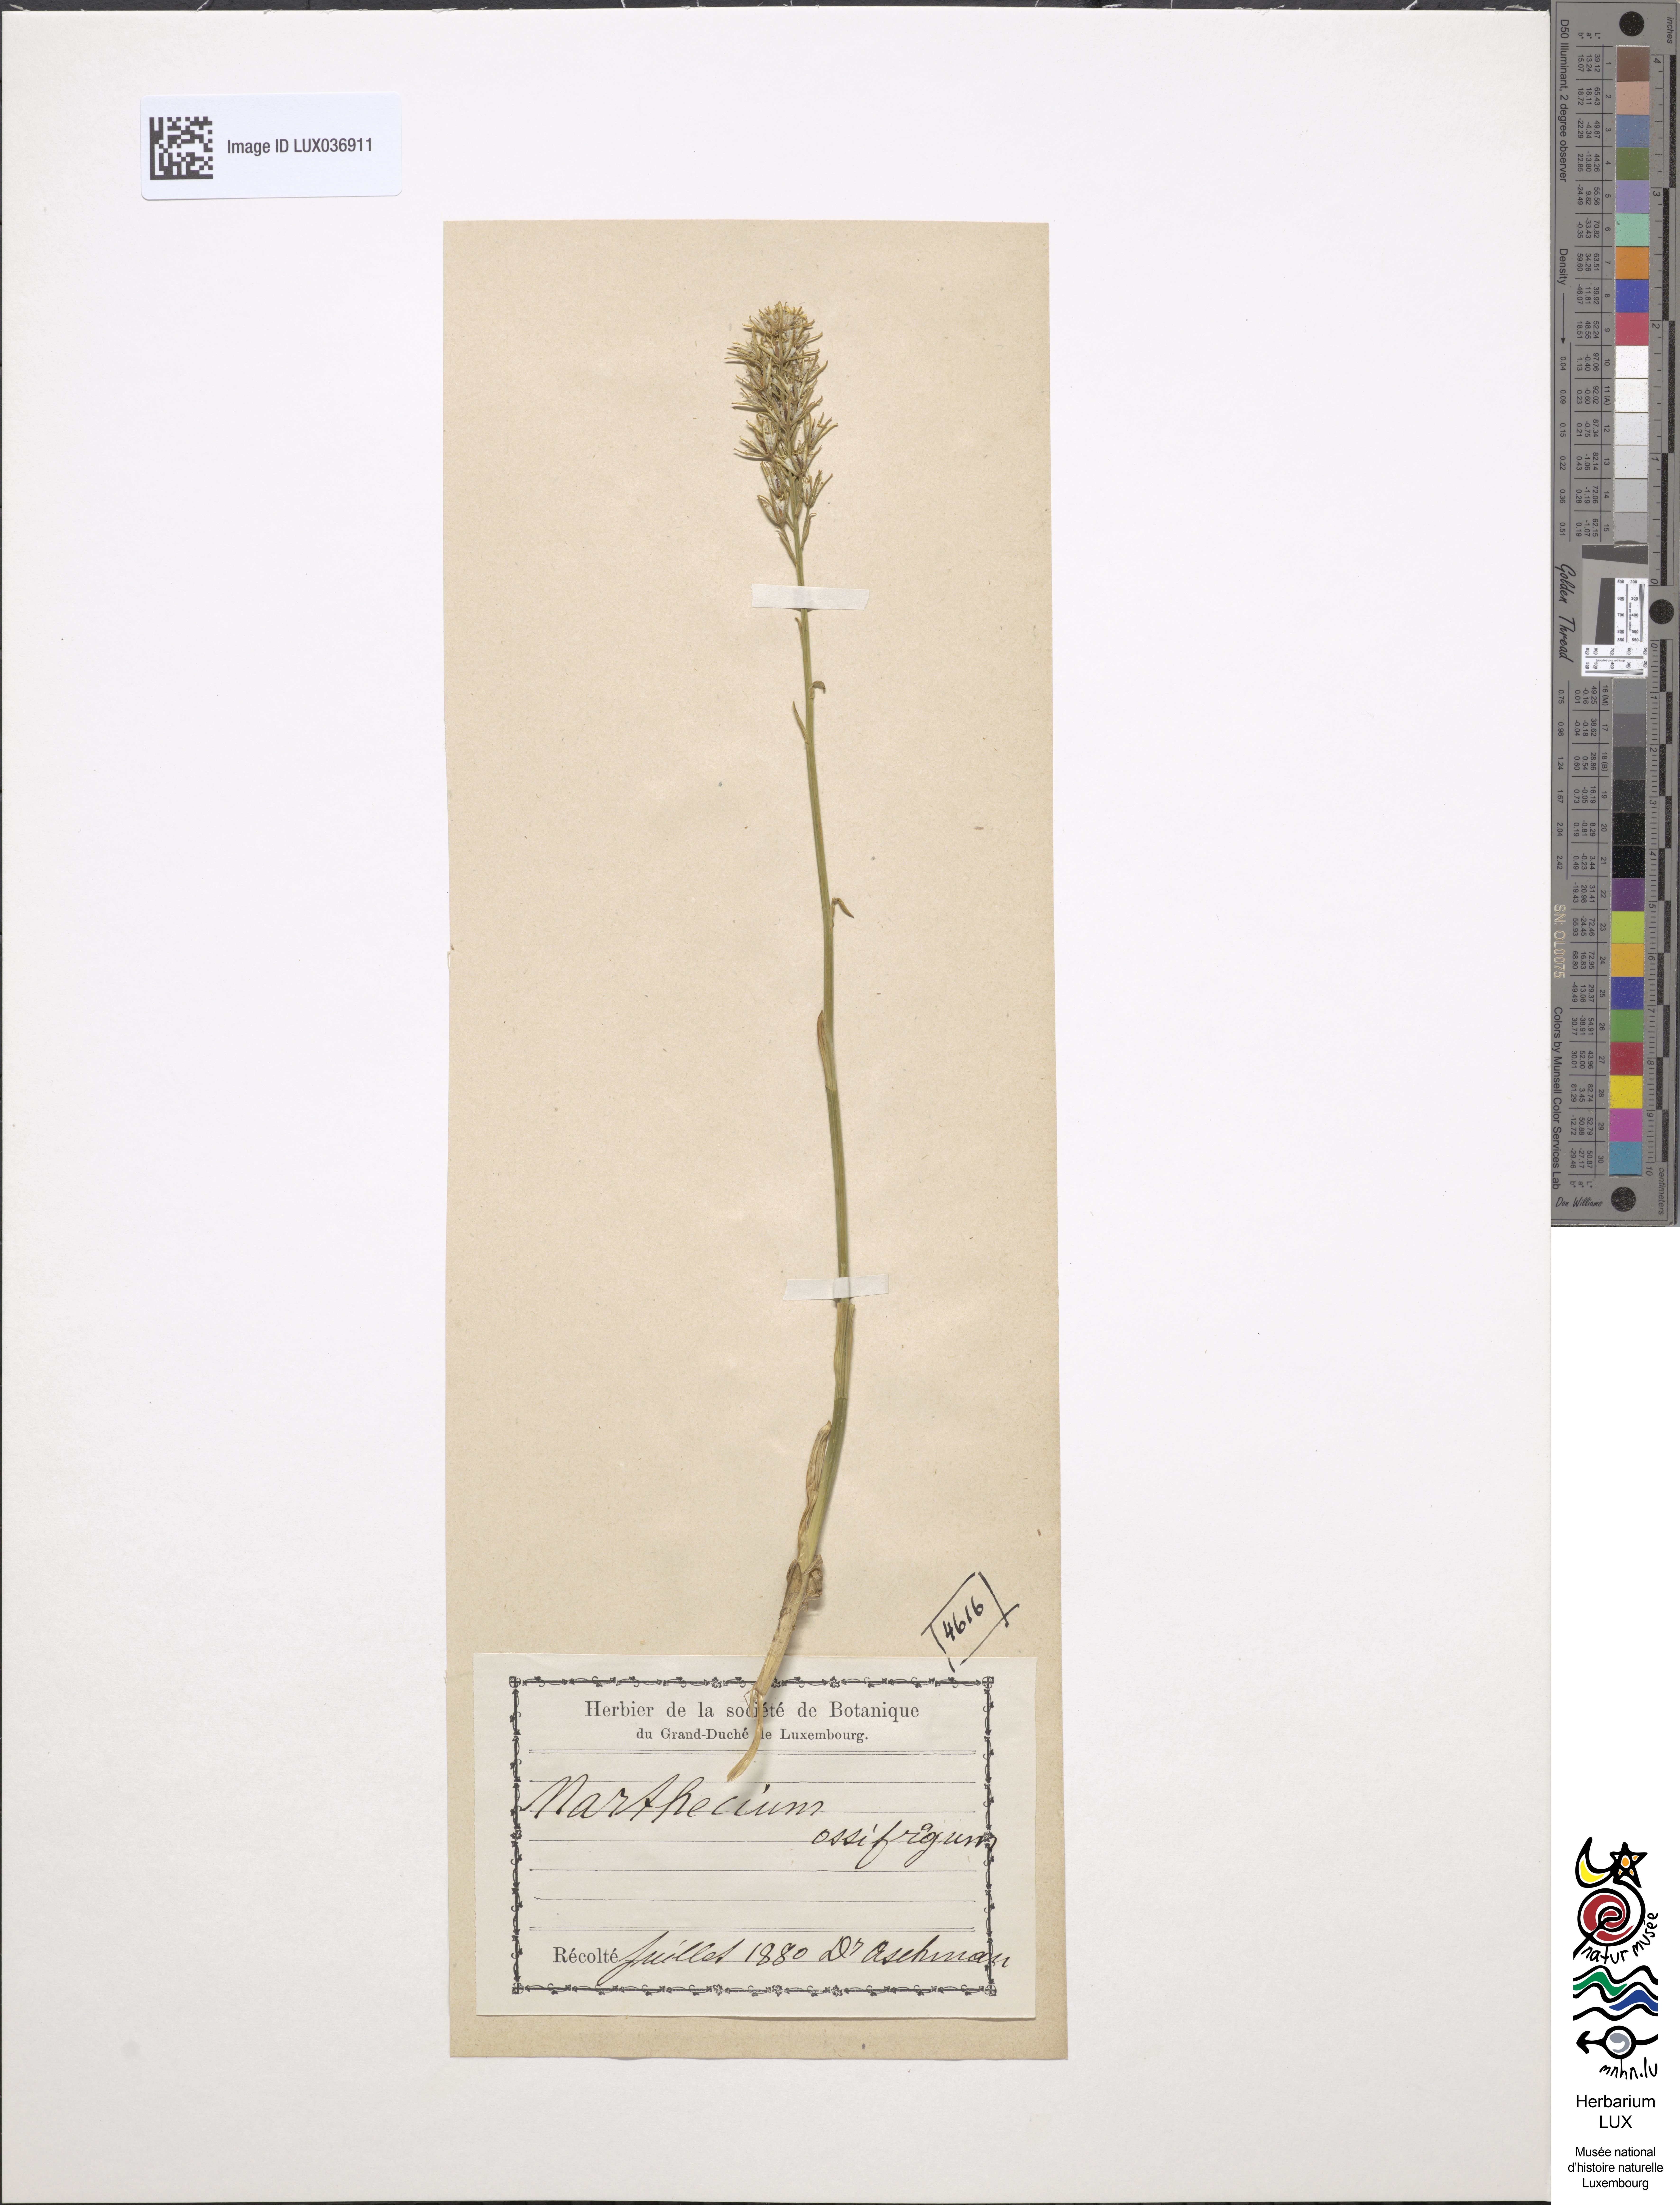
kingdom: Plantae
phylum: Tracheophyta
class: Liliopsida
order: Dioscoreales
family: Nartheciaceae
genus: Narthecium
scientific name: Narthecium ossifragum
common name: Bog asphodel
